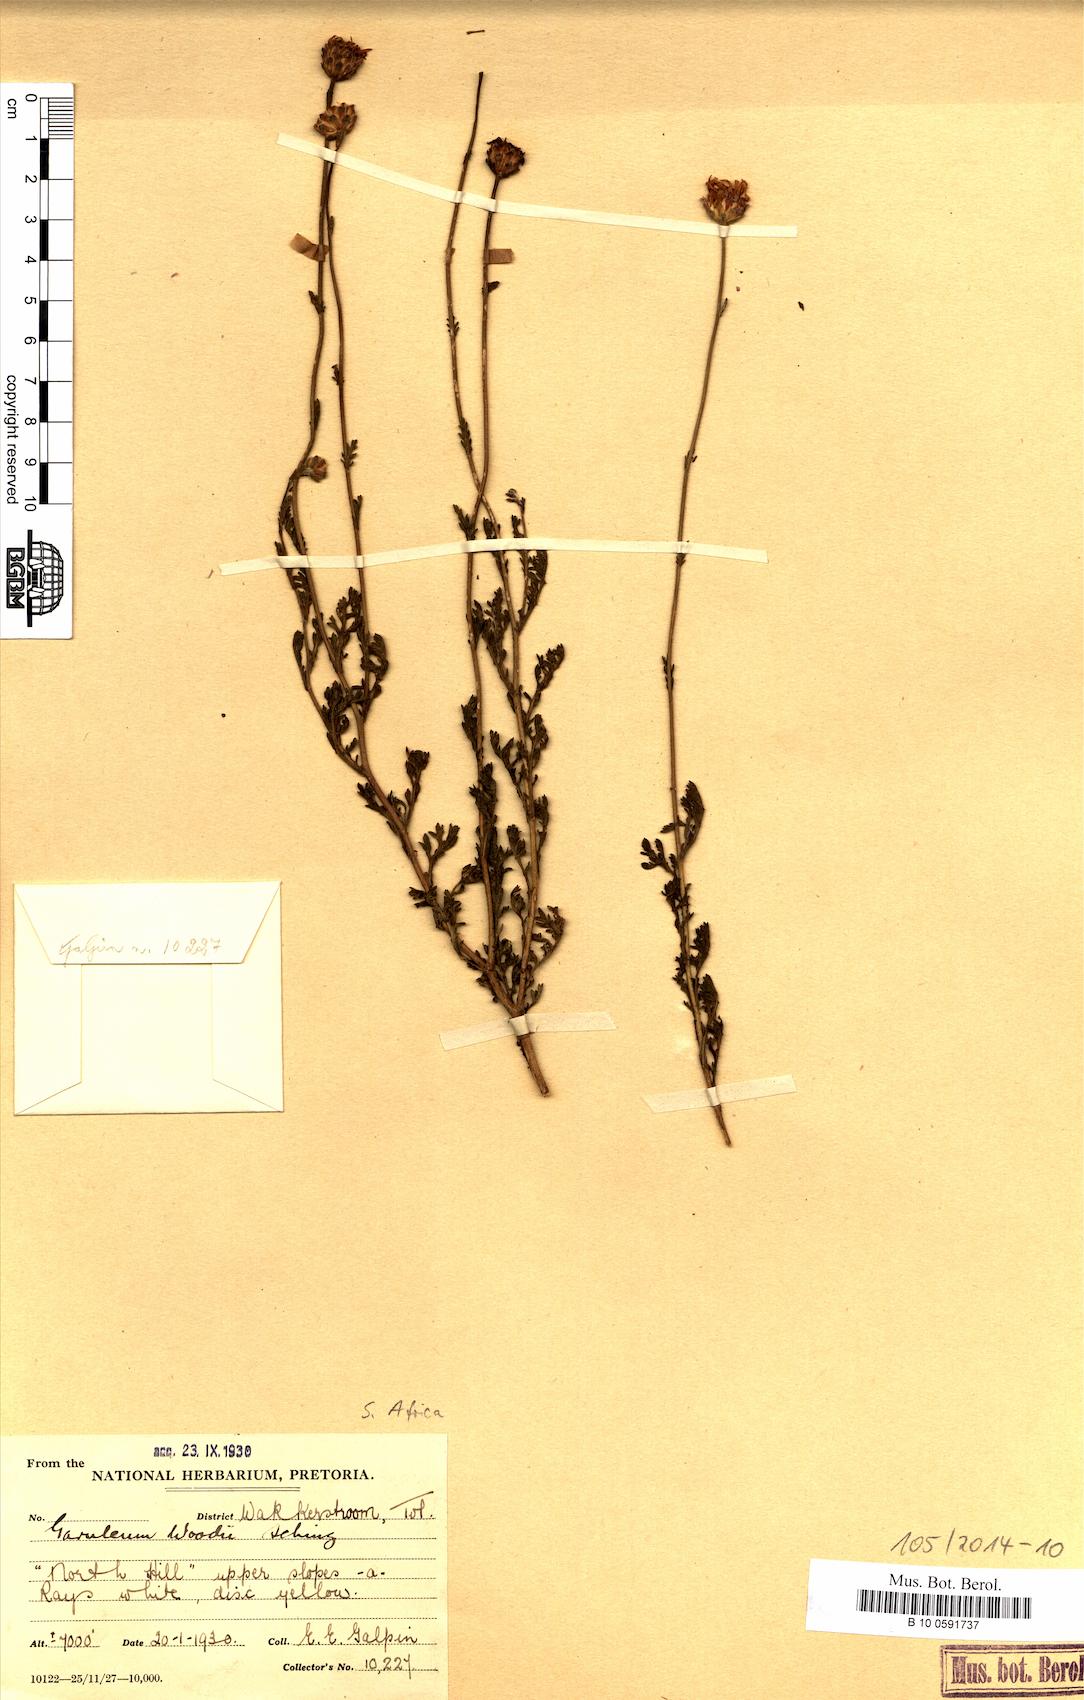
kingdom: Plantae
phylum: Tracheophyta
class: Magnoliopsida
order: Asterales
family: Asteraceae
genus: Garuleum
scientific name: Garuleum woodii
